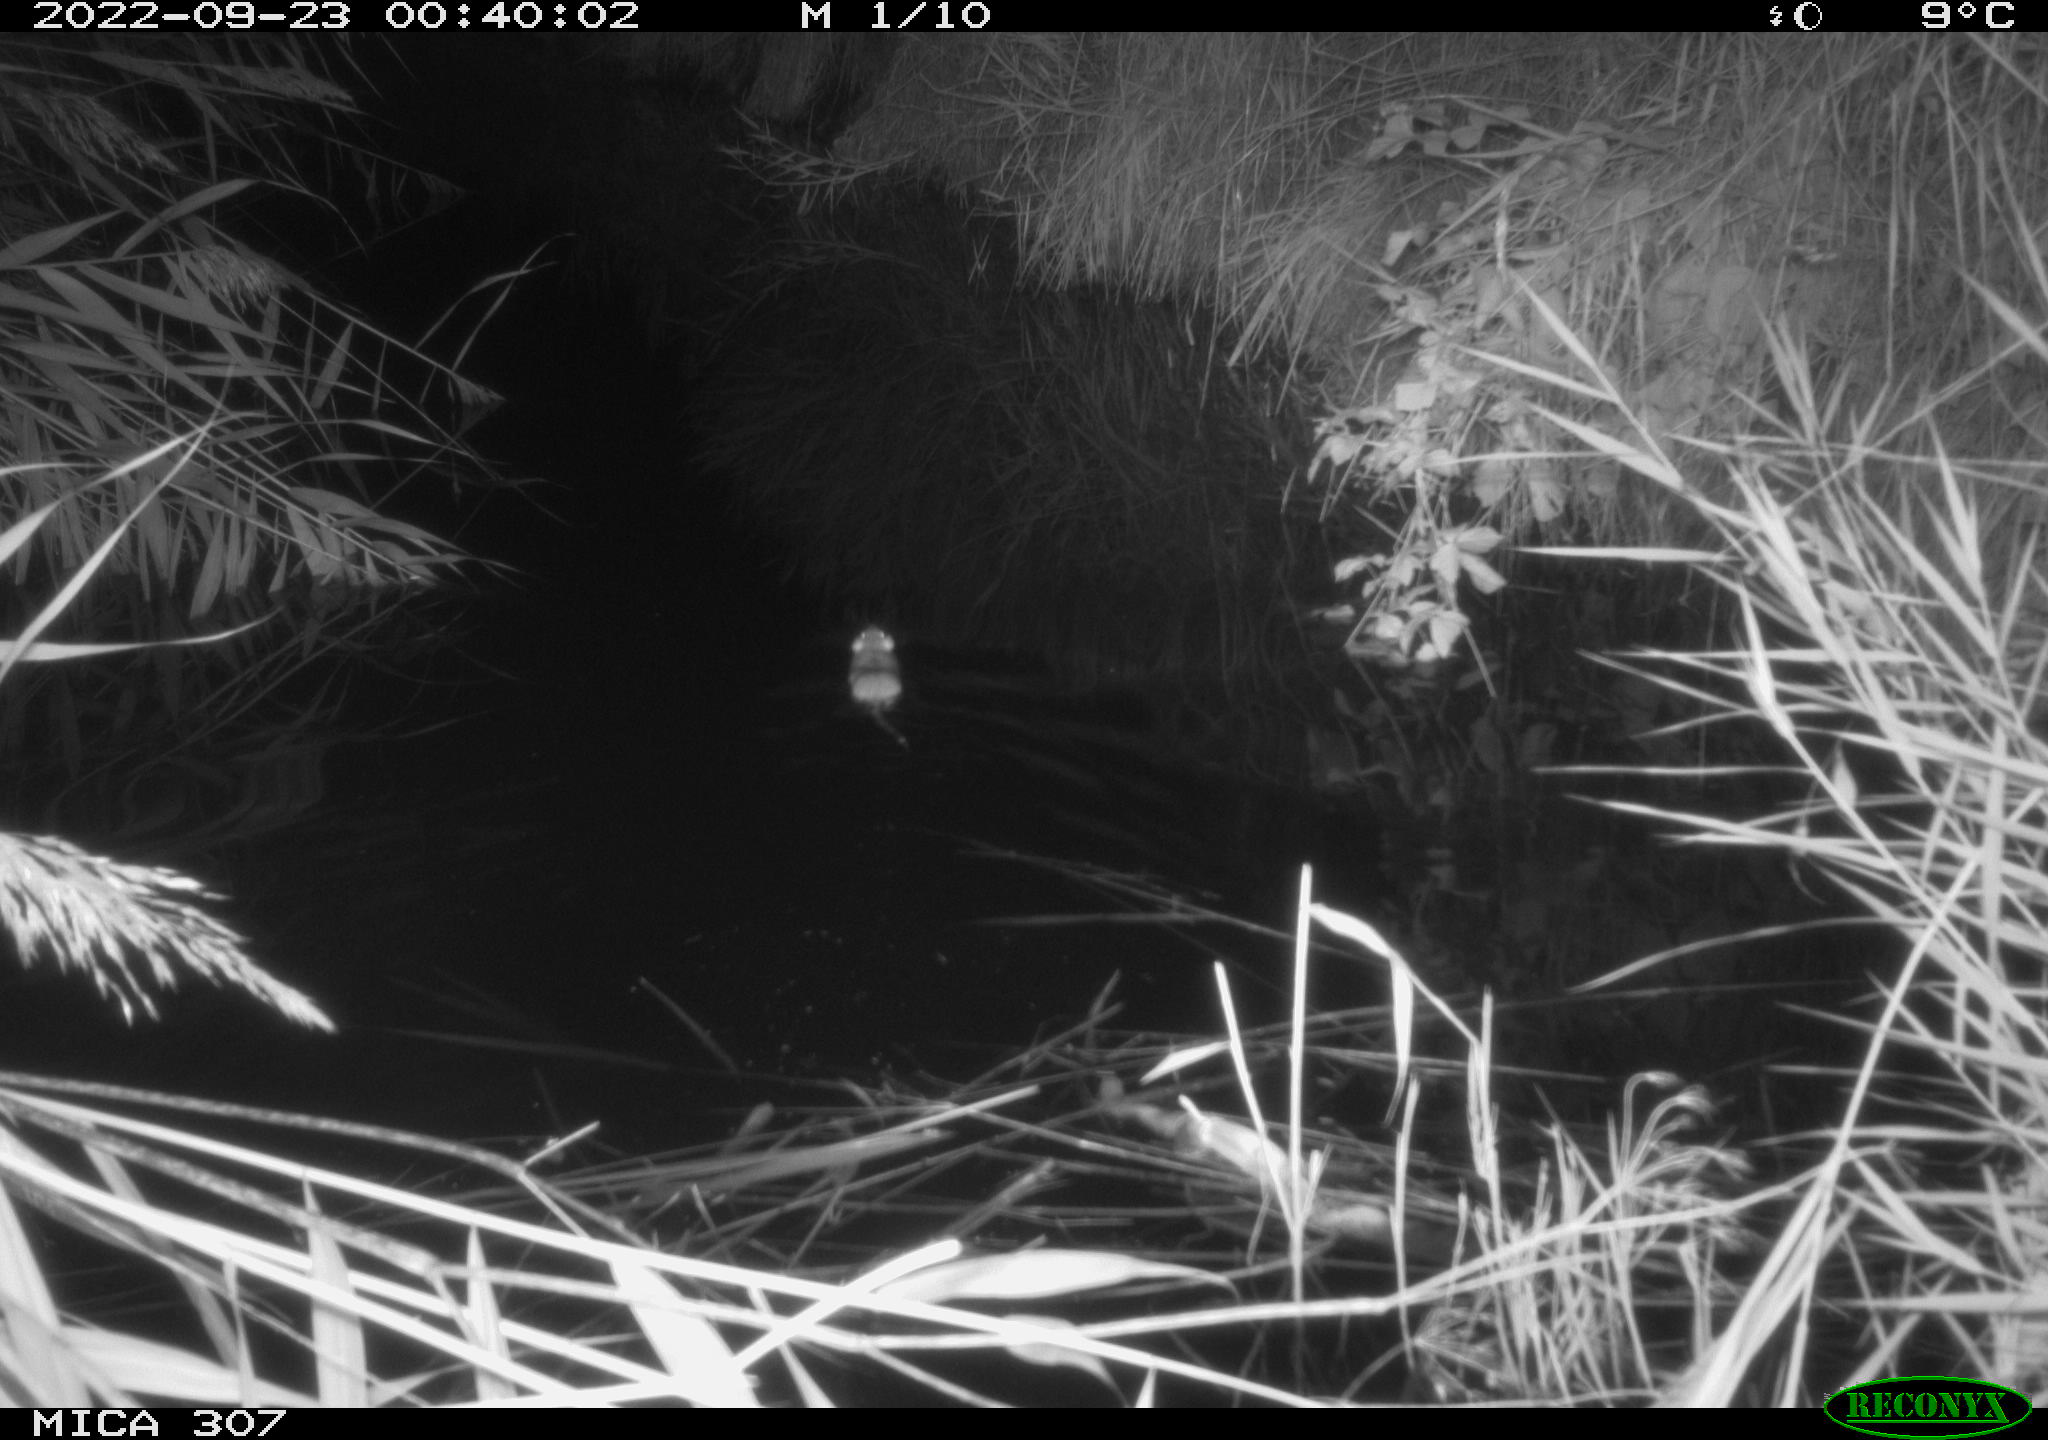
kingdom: Animalia
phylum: Chordata
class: Mammalia
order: Rodentia
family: Muridae
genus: Rattus
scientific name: Rattus norvegicus
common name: Brown rat
